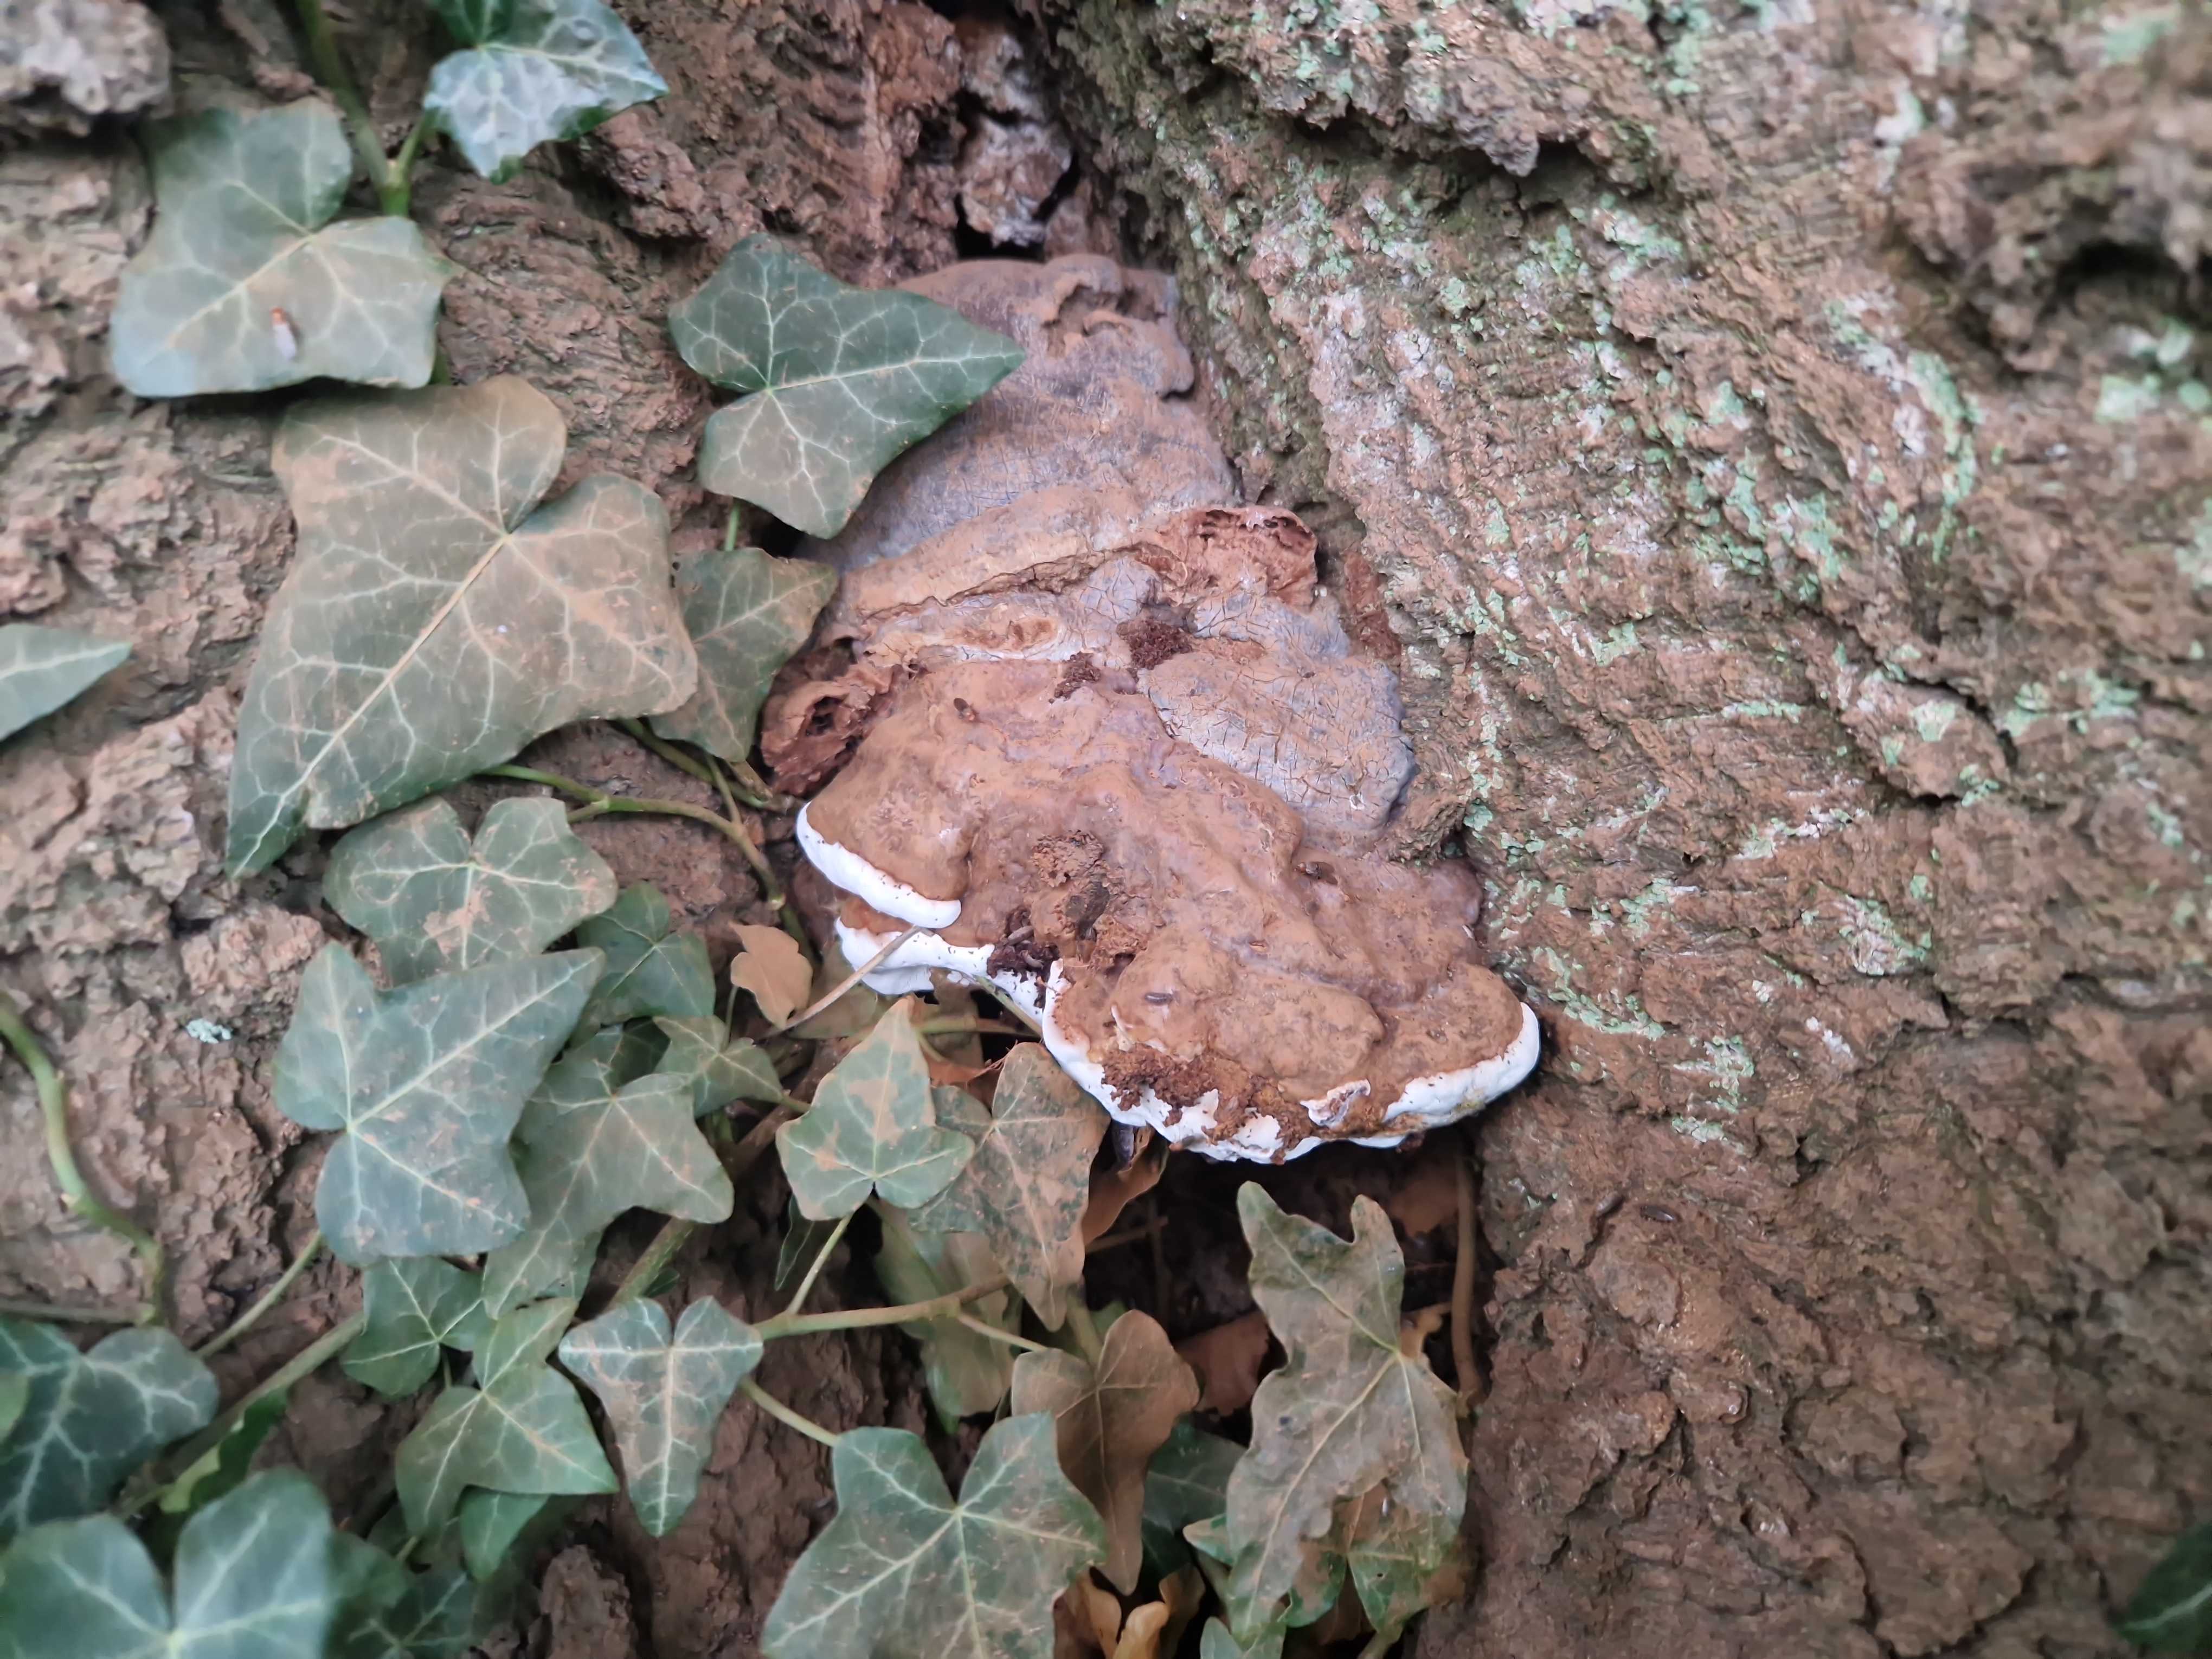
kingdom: Fungi
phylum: Basidiomycota
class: Agaricomycetes
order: Polyporales
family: Polyporaceae
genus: Ganoderma
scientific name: Ganoderma pfeifferi
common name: kobberrød lakporesvamp
